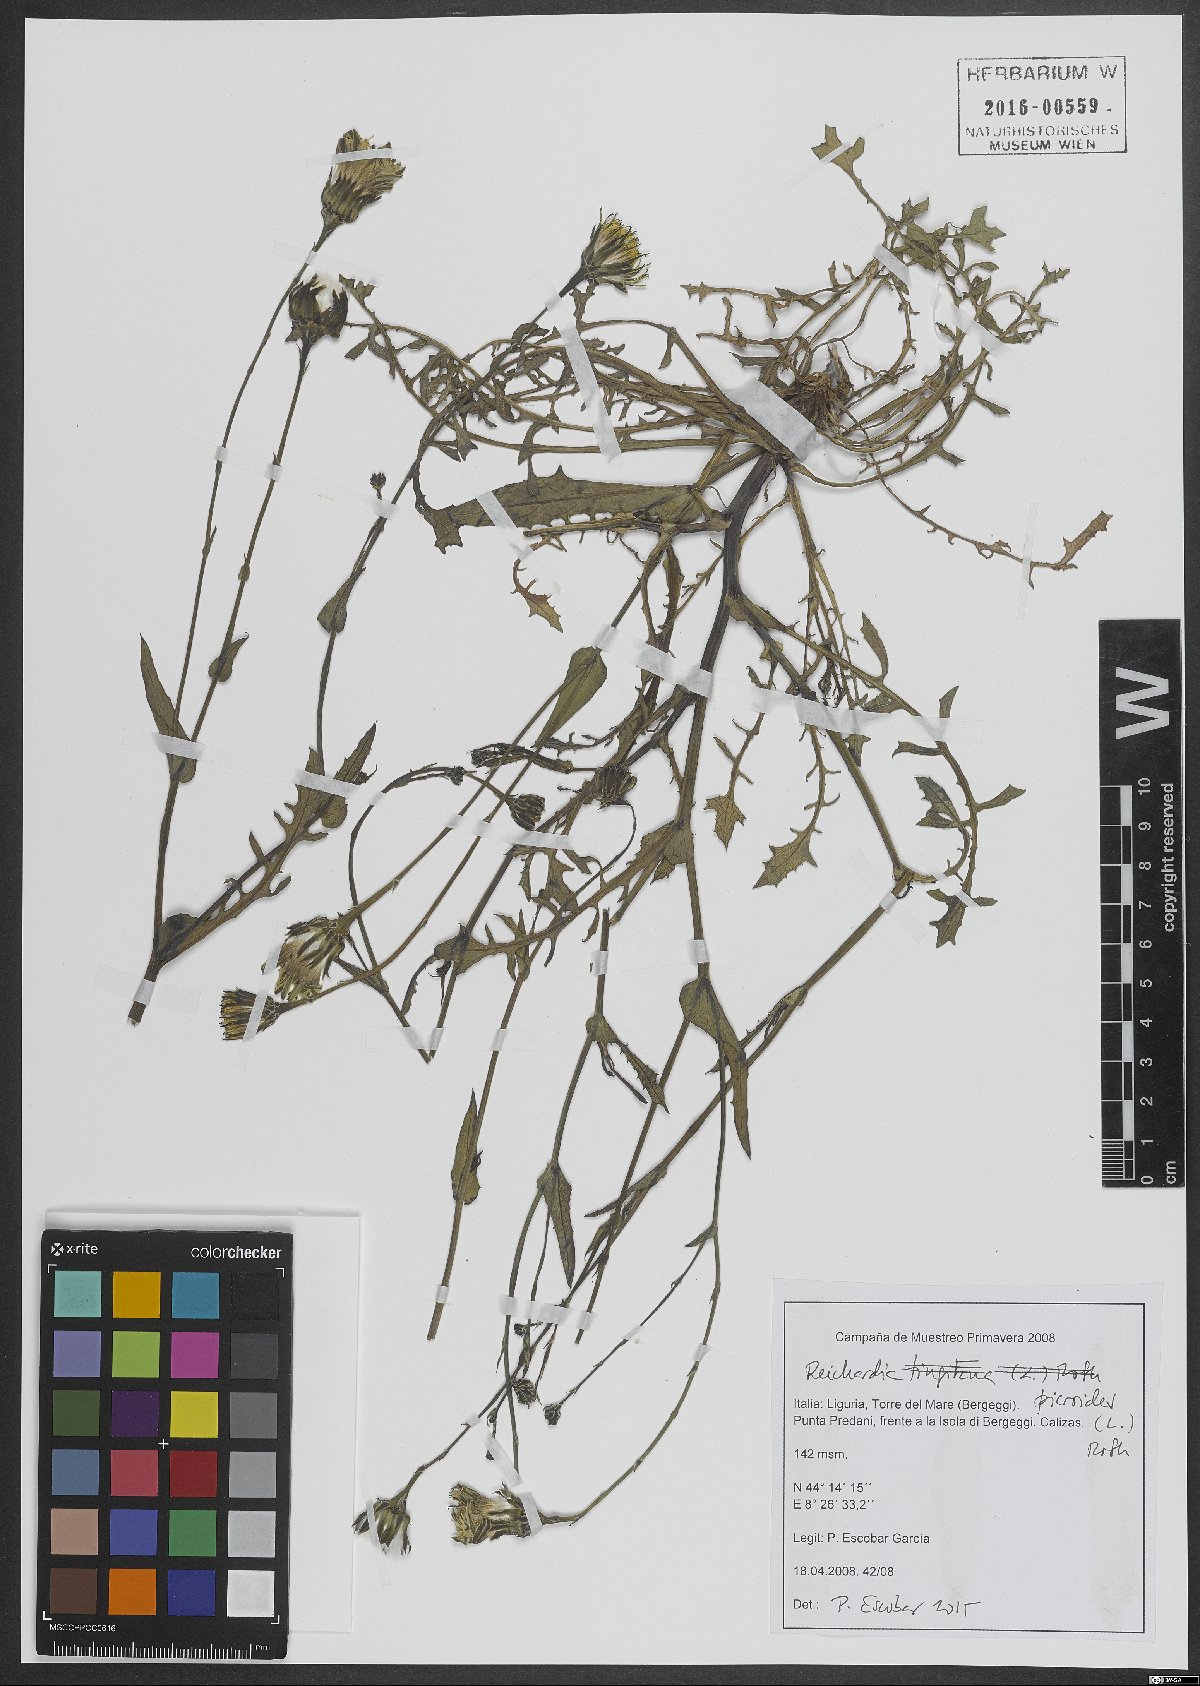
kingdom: Plantae
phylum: Tracheophyta
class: Magnoliopsida
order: Asterales
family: Asteraceae
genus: Reichardia
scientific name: Reichardia picroides
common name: Common brighteyes
